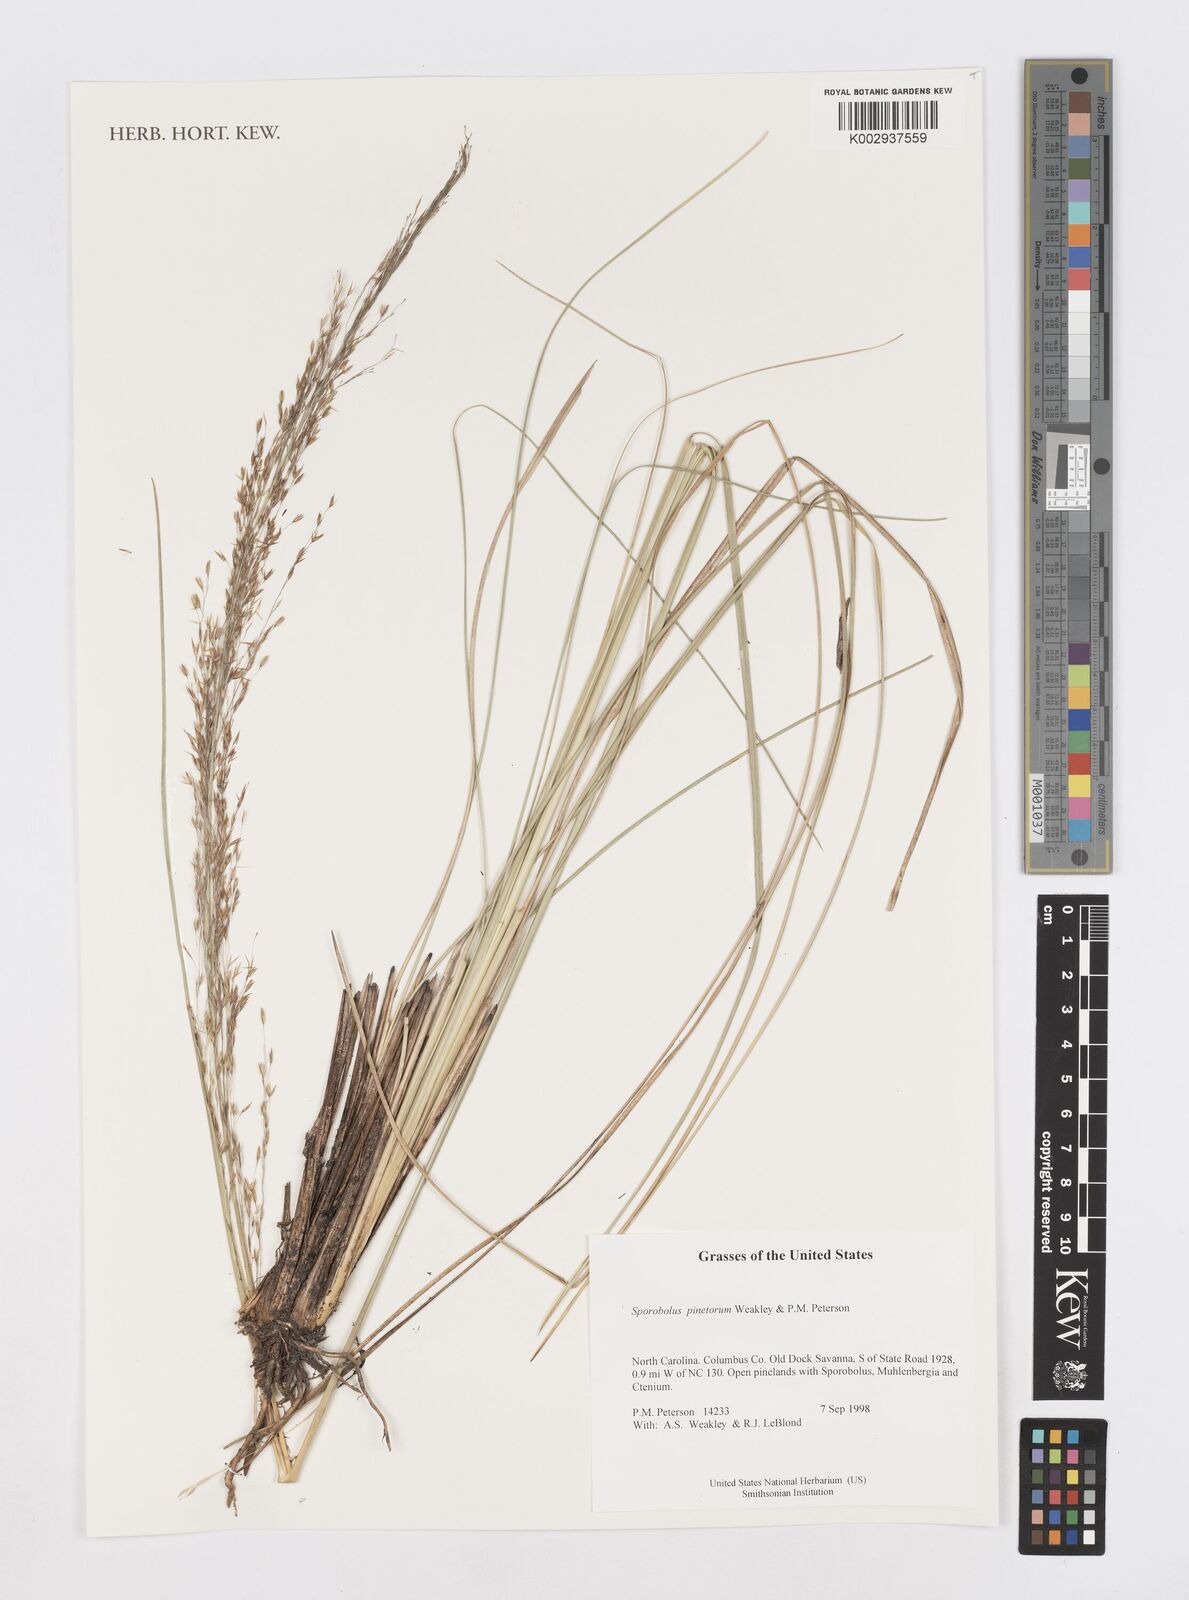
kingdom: Plantae
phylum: Tracheophyta
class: Liliopsida
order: Poales
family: Poaceae
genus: Sporobolus
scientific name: Sporobolus pinetorum
